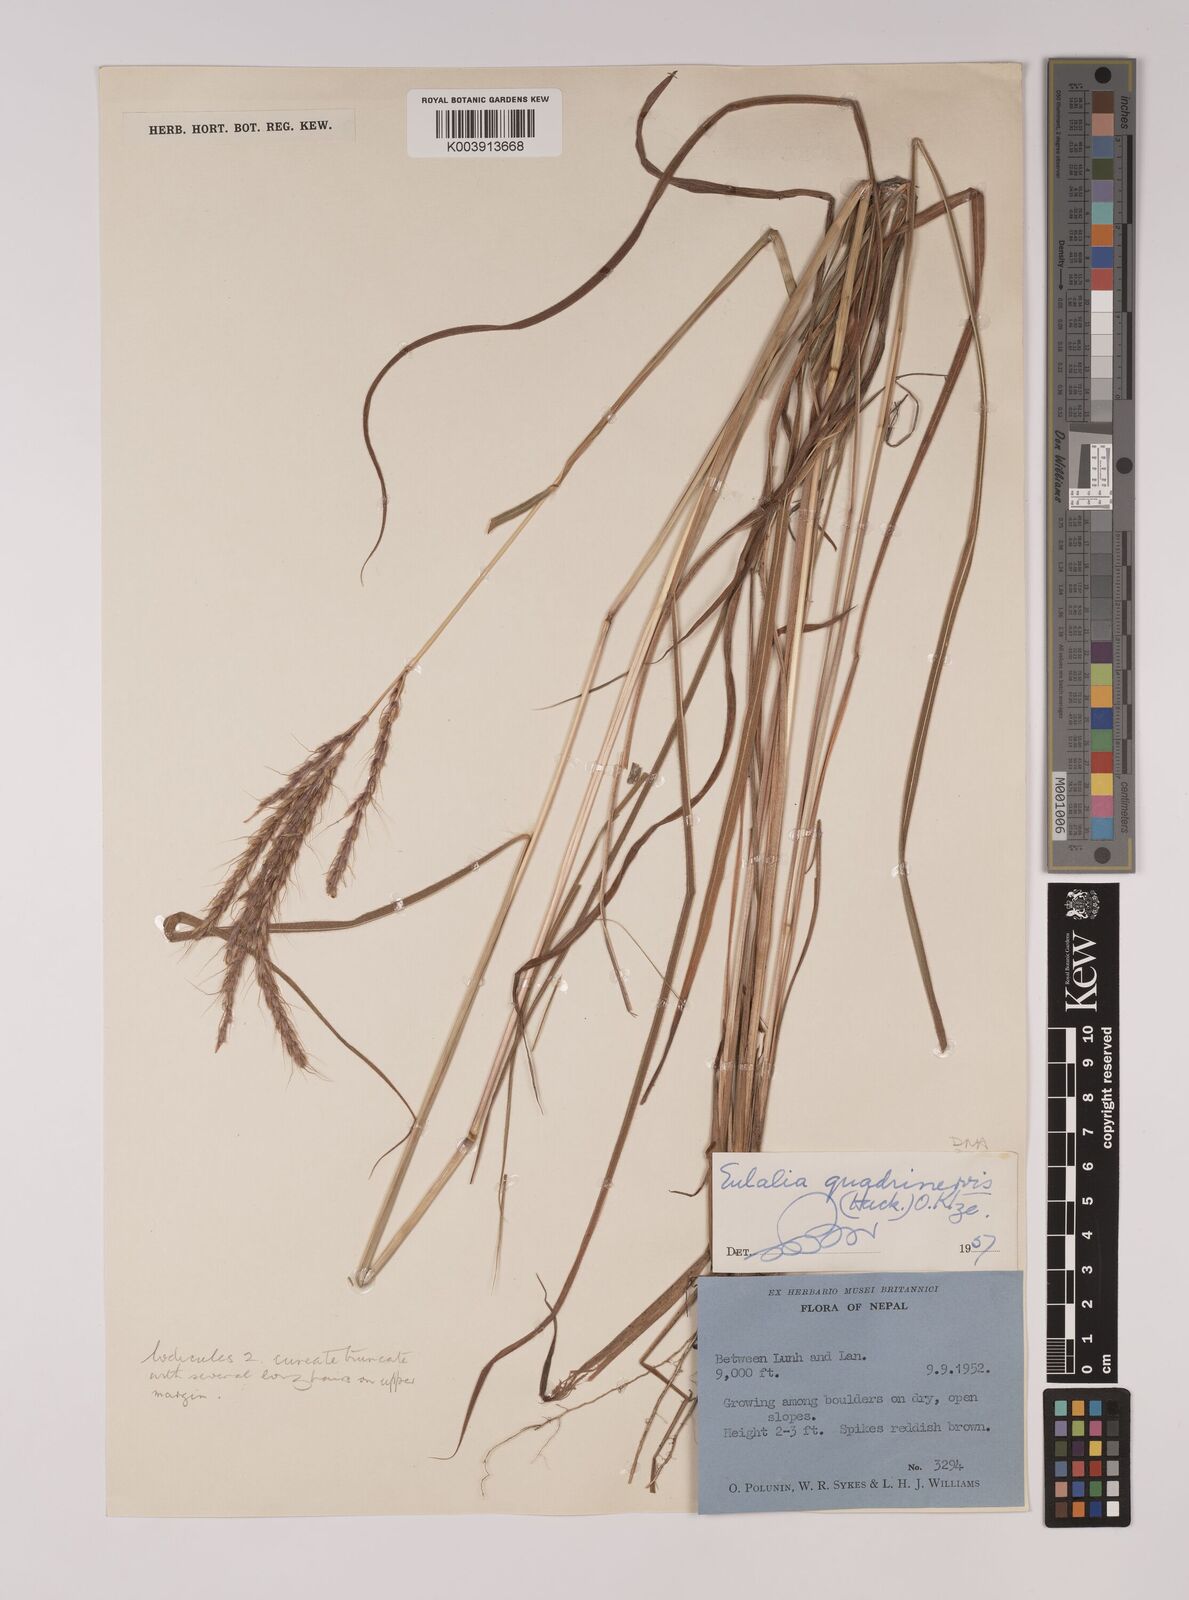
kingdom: Plantae
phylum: Tracheophyta
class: Liliopsida
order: Poales
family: Poaceae
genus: Pseudopogonatherum
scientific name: Pseudopogonatherum quadrinerve
